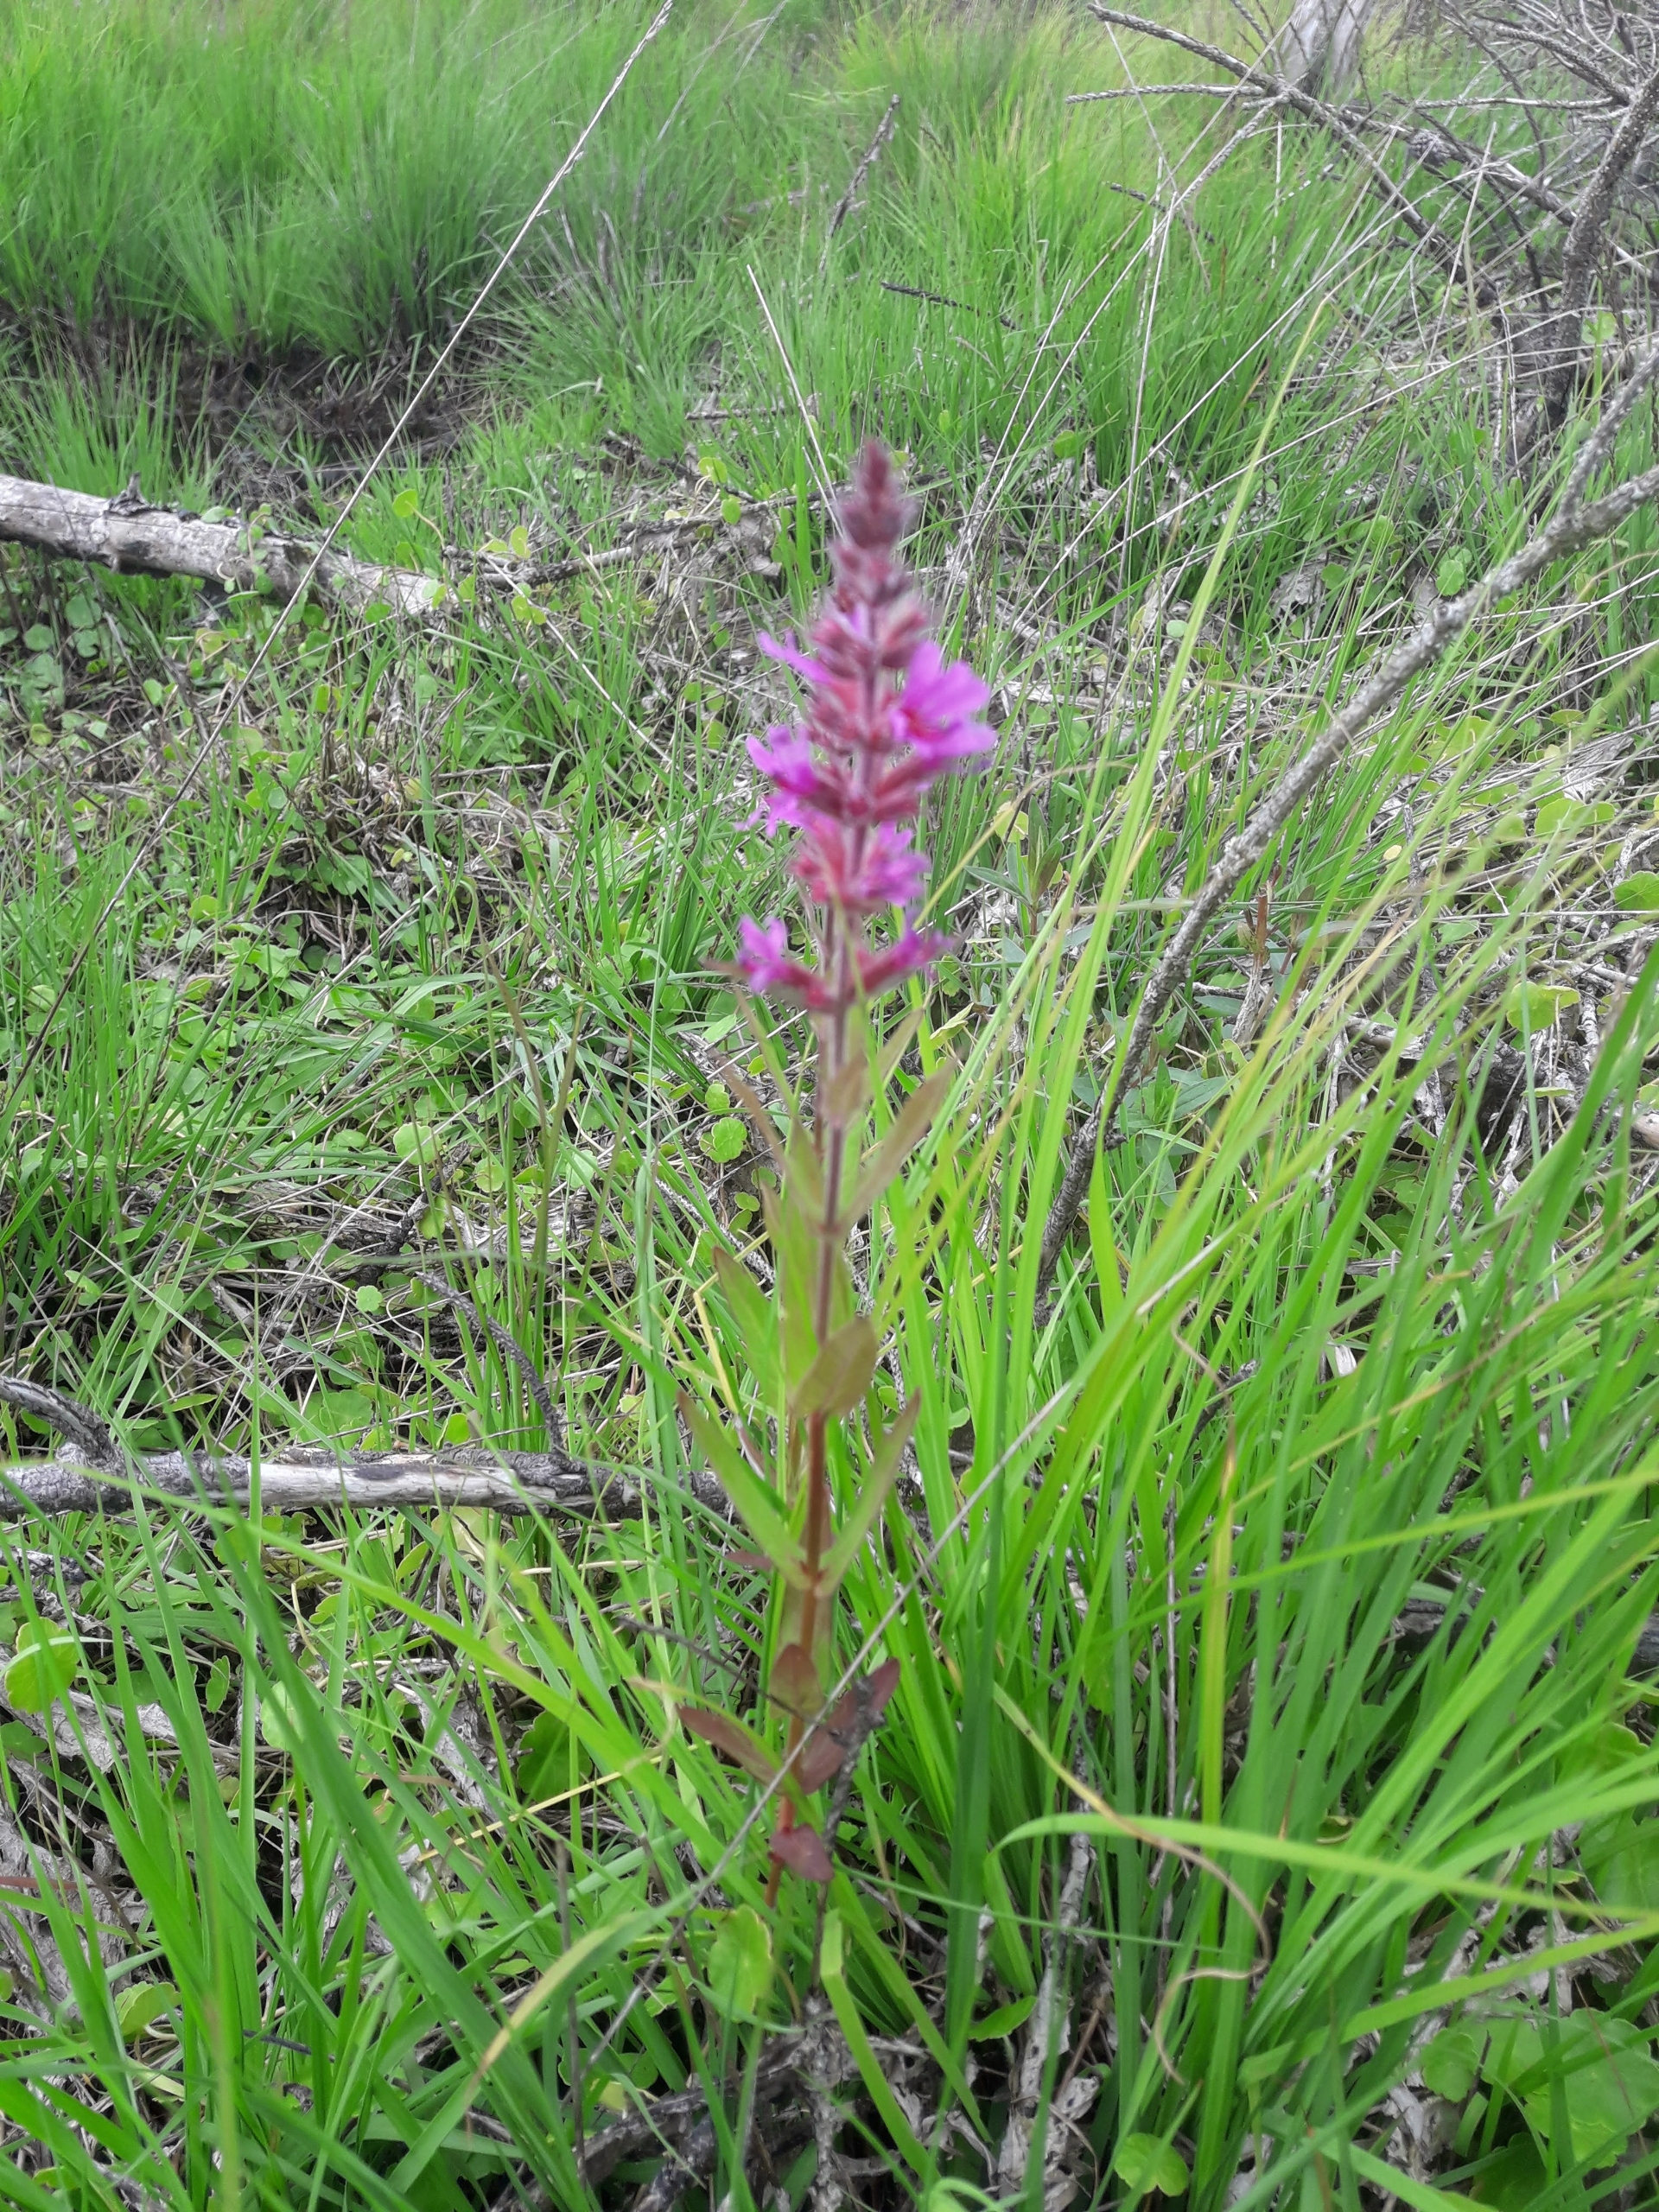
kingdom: Plantae
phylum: Tracheophyta
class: Magnoliopsida
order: Myrtales
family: Lythraceae
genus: Lythrum
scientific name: Lythrum salicaria
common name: Kattehale
